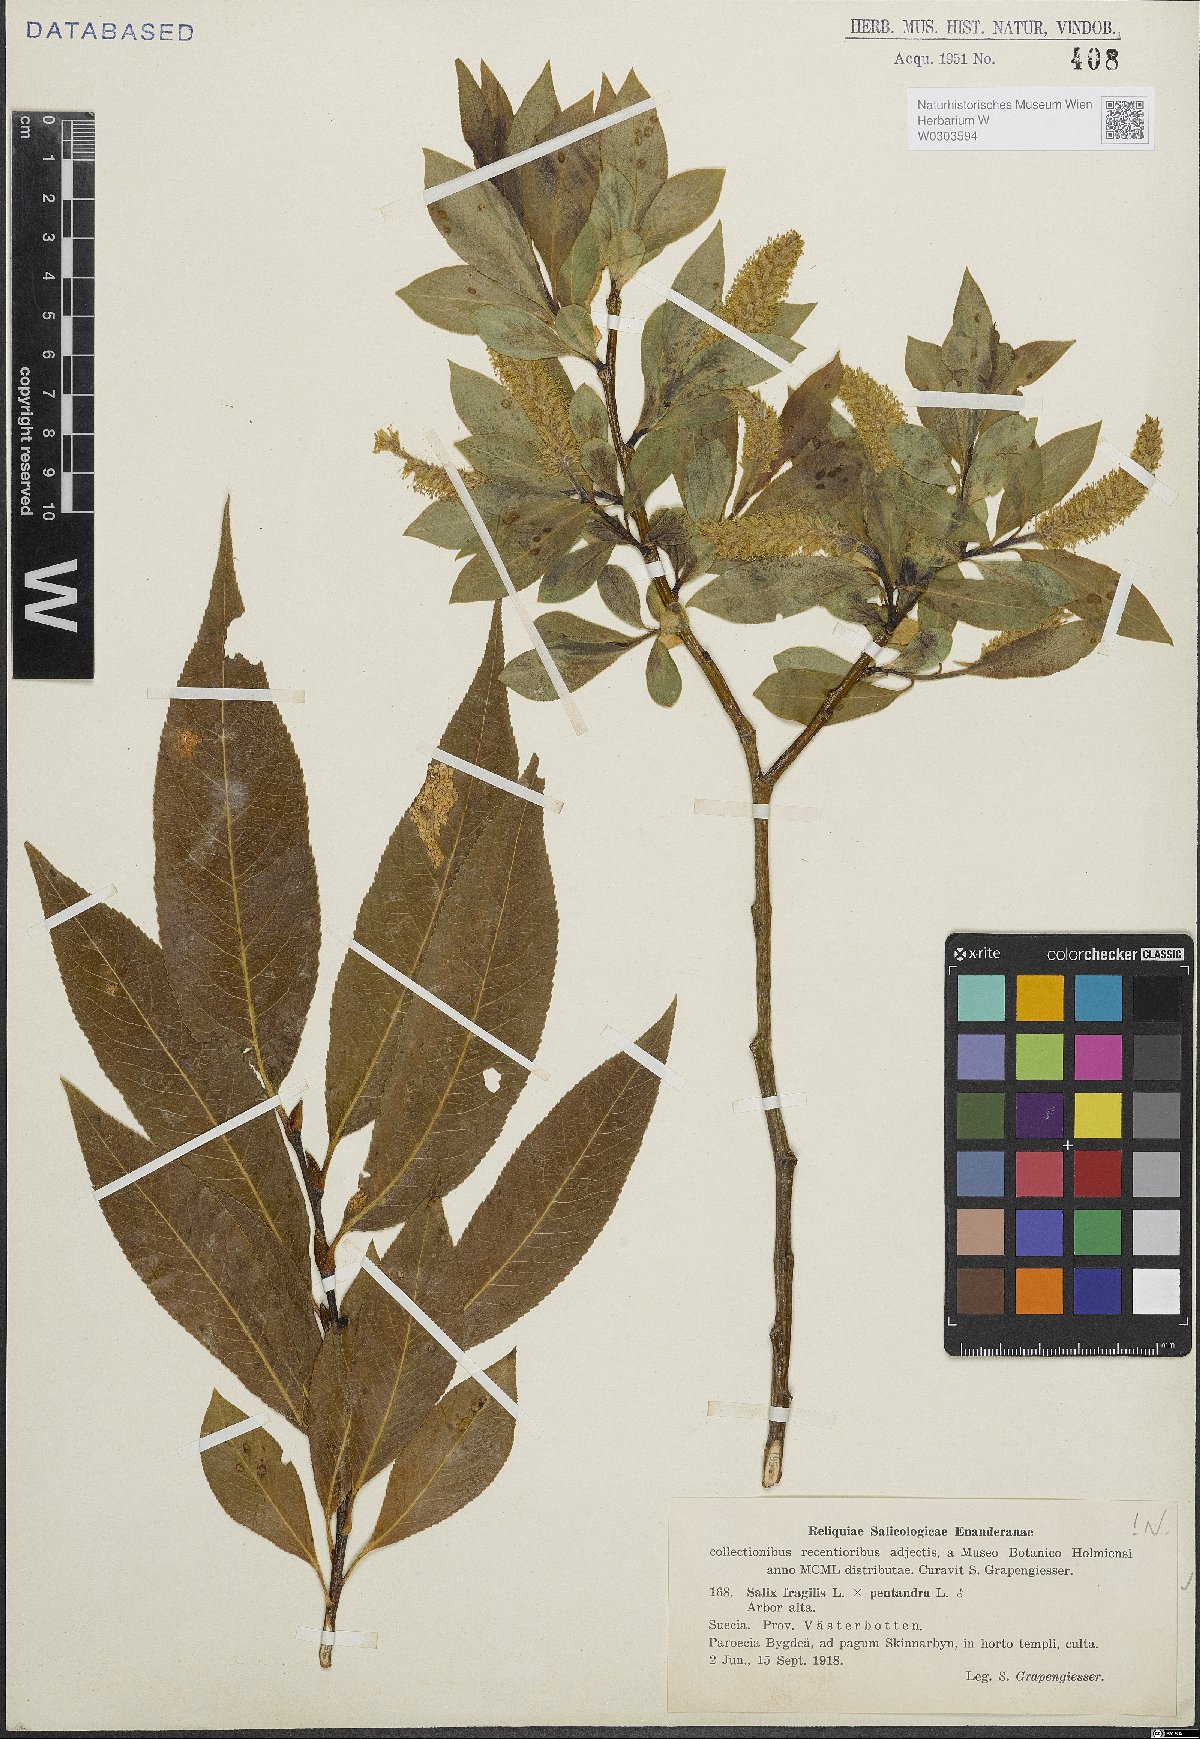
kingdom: Plantae
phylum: Tracheophyta
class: Magnoliopsida
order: Malpighiales
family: Salicaceae
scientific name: Salicaceae
